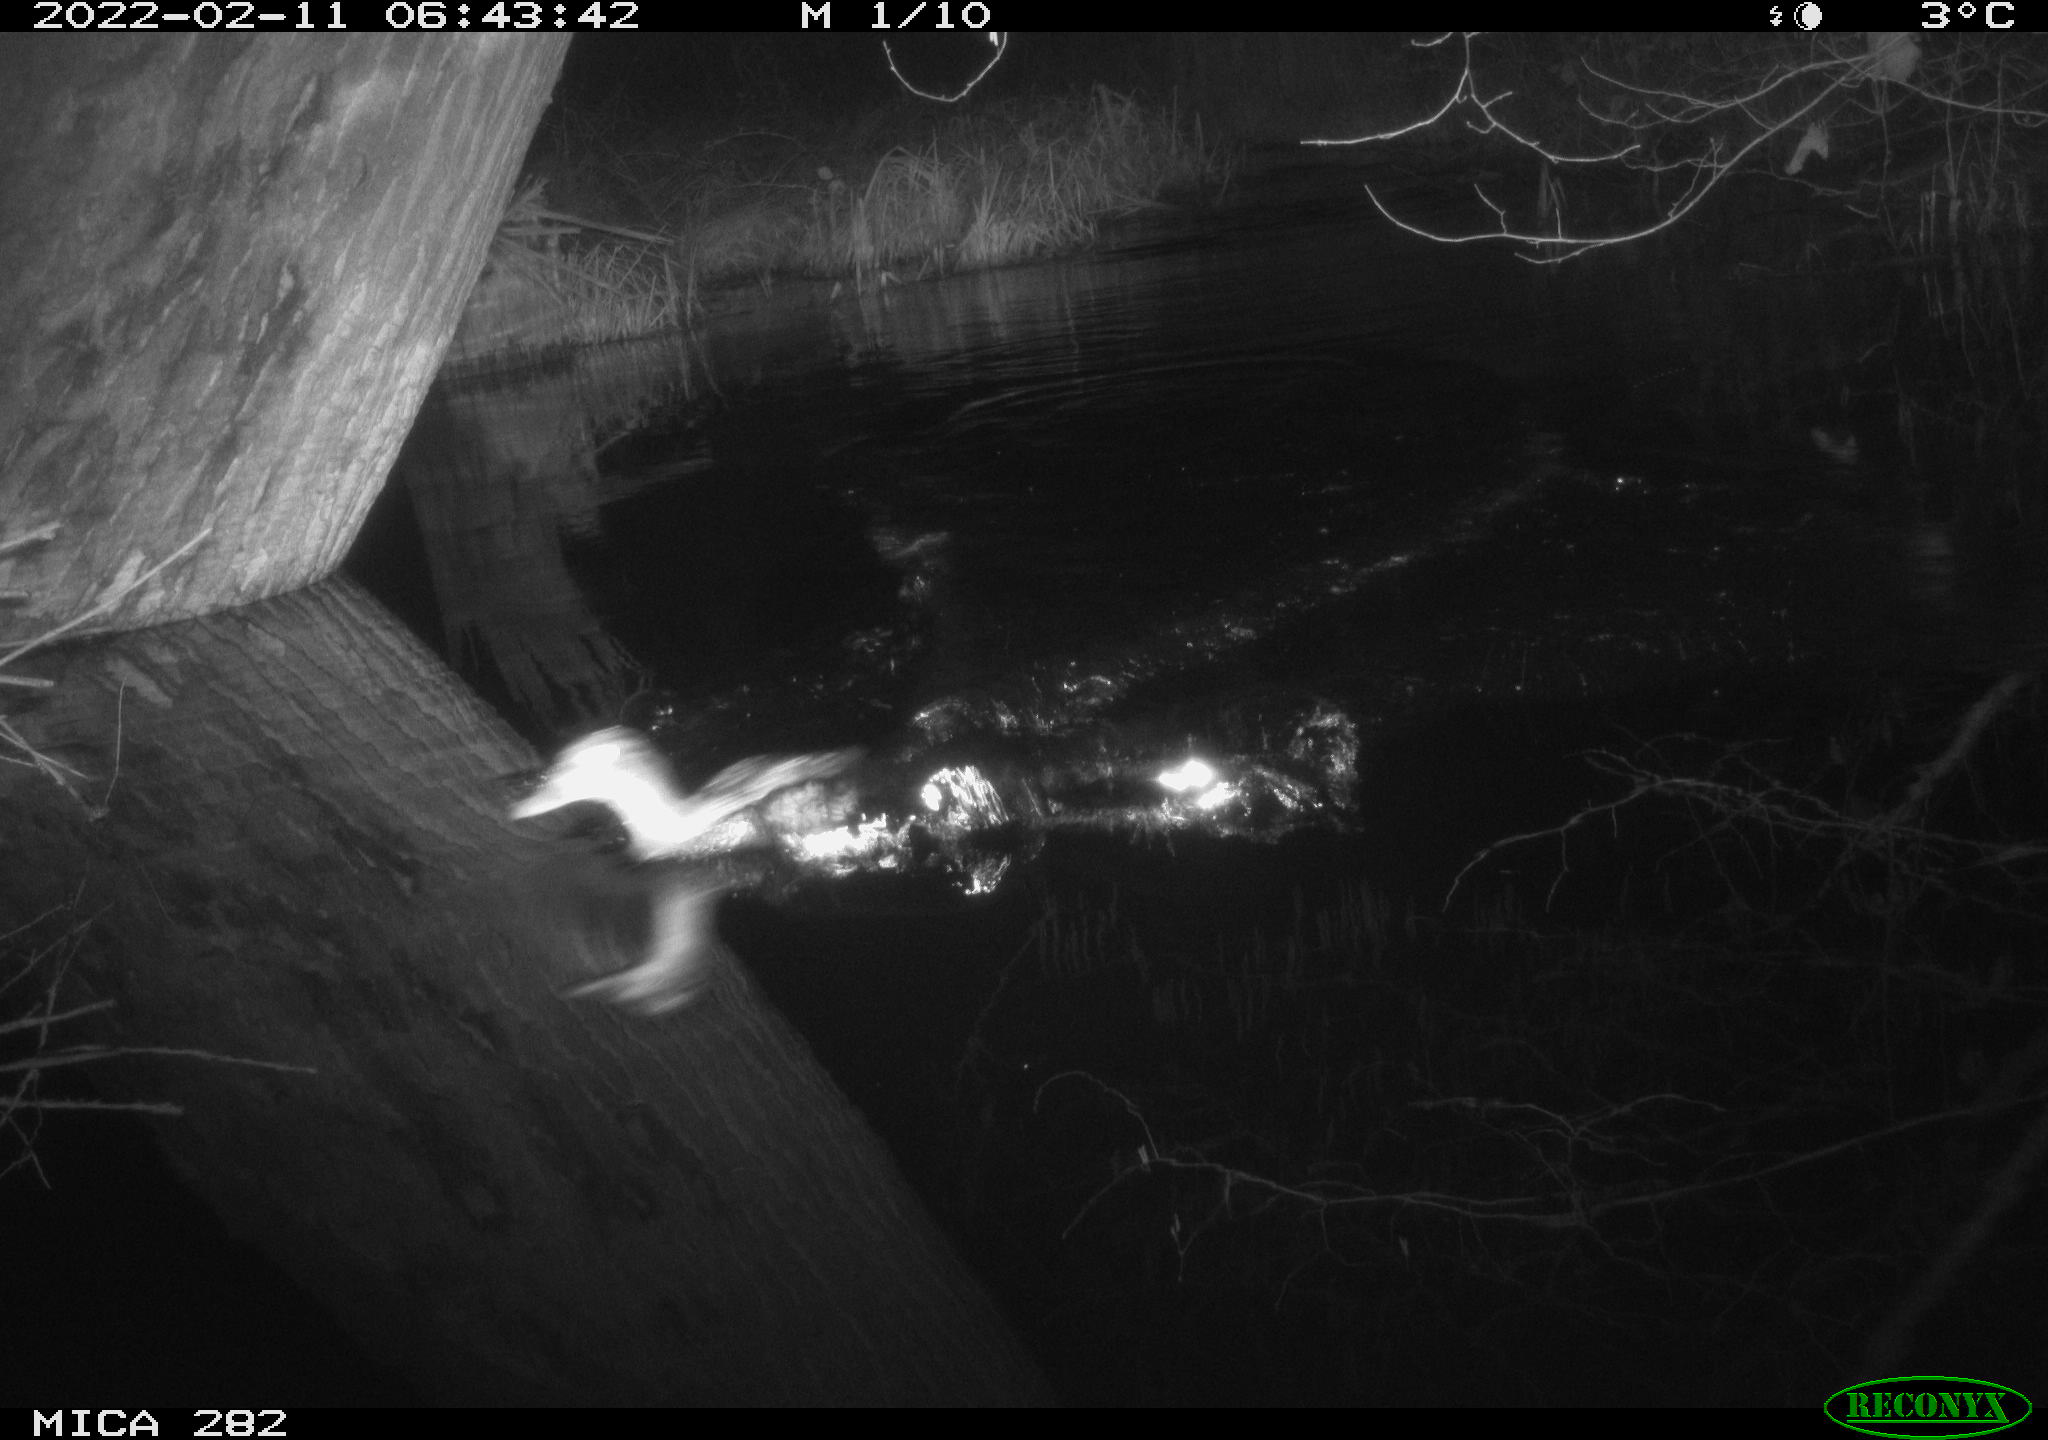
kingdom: Animalia
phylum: Chordata
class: Aves
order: Anseriformes
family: Anatidae
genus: Anas
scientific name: Anas platyrhynchos
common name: Mallard
